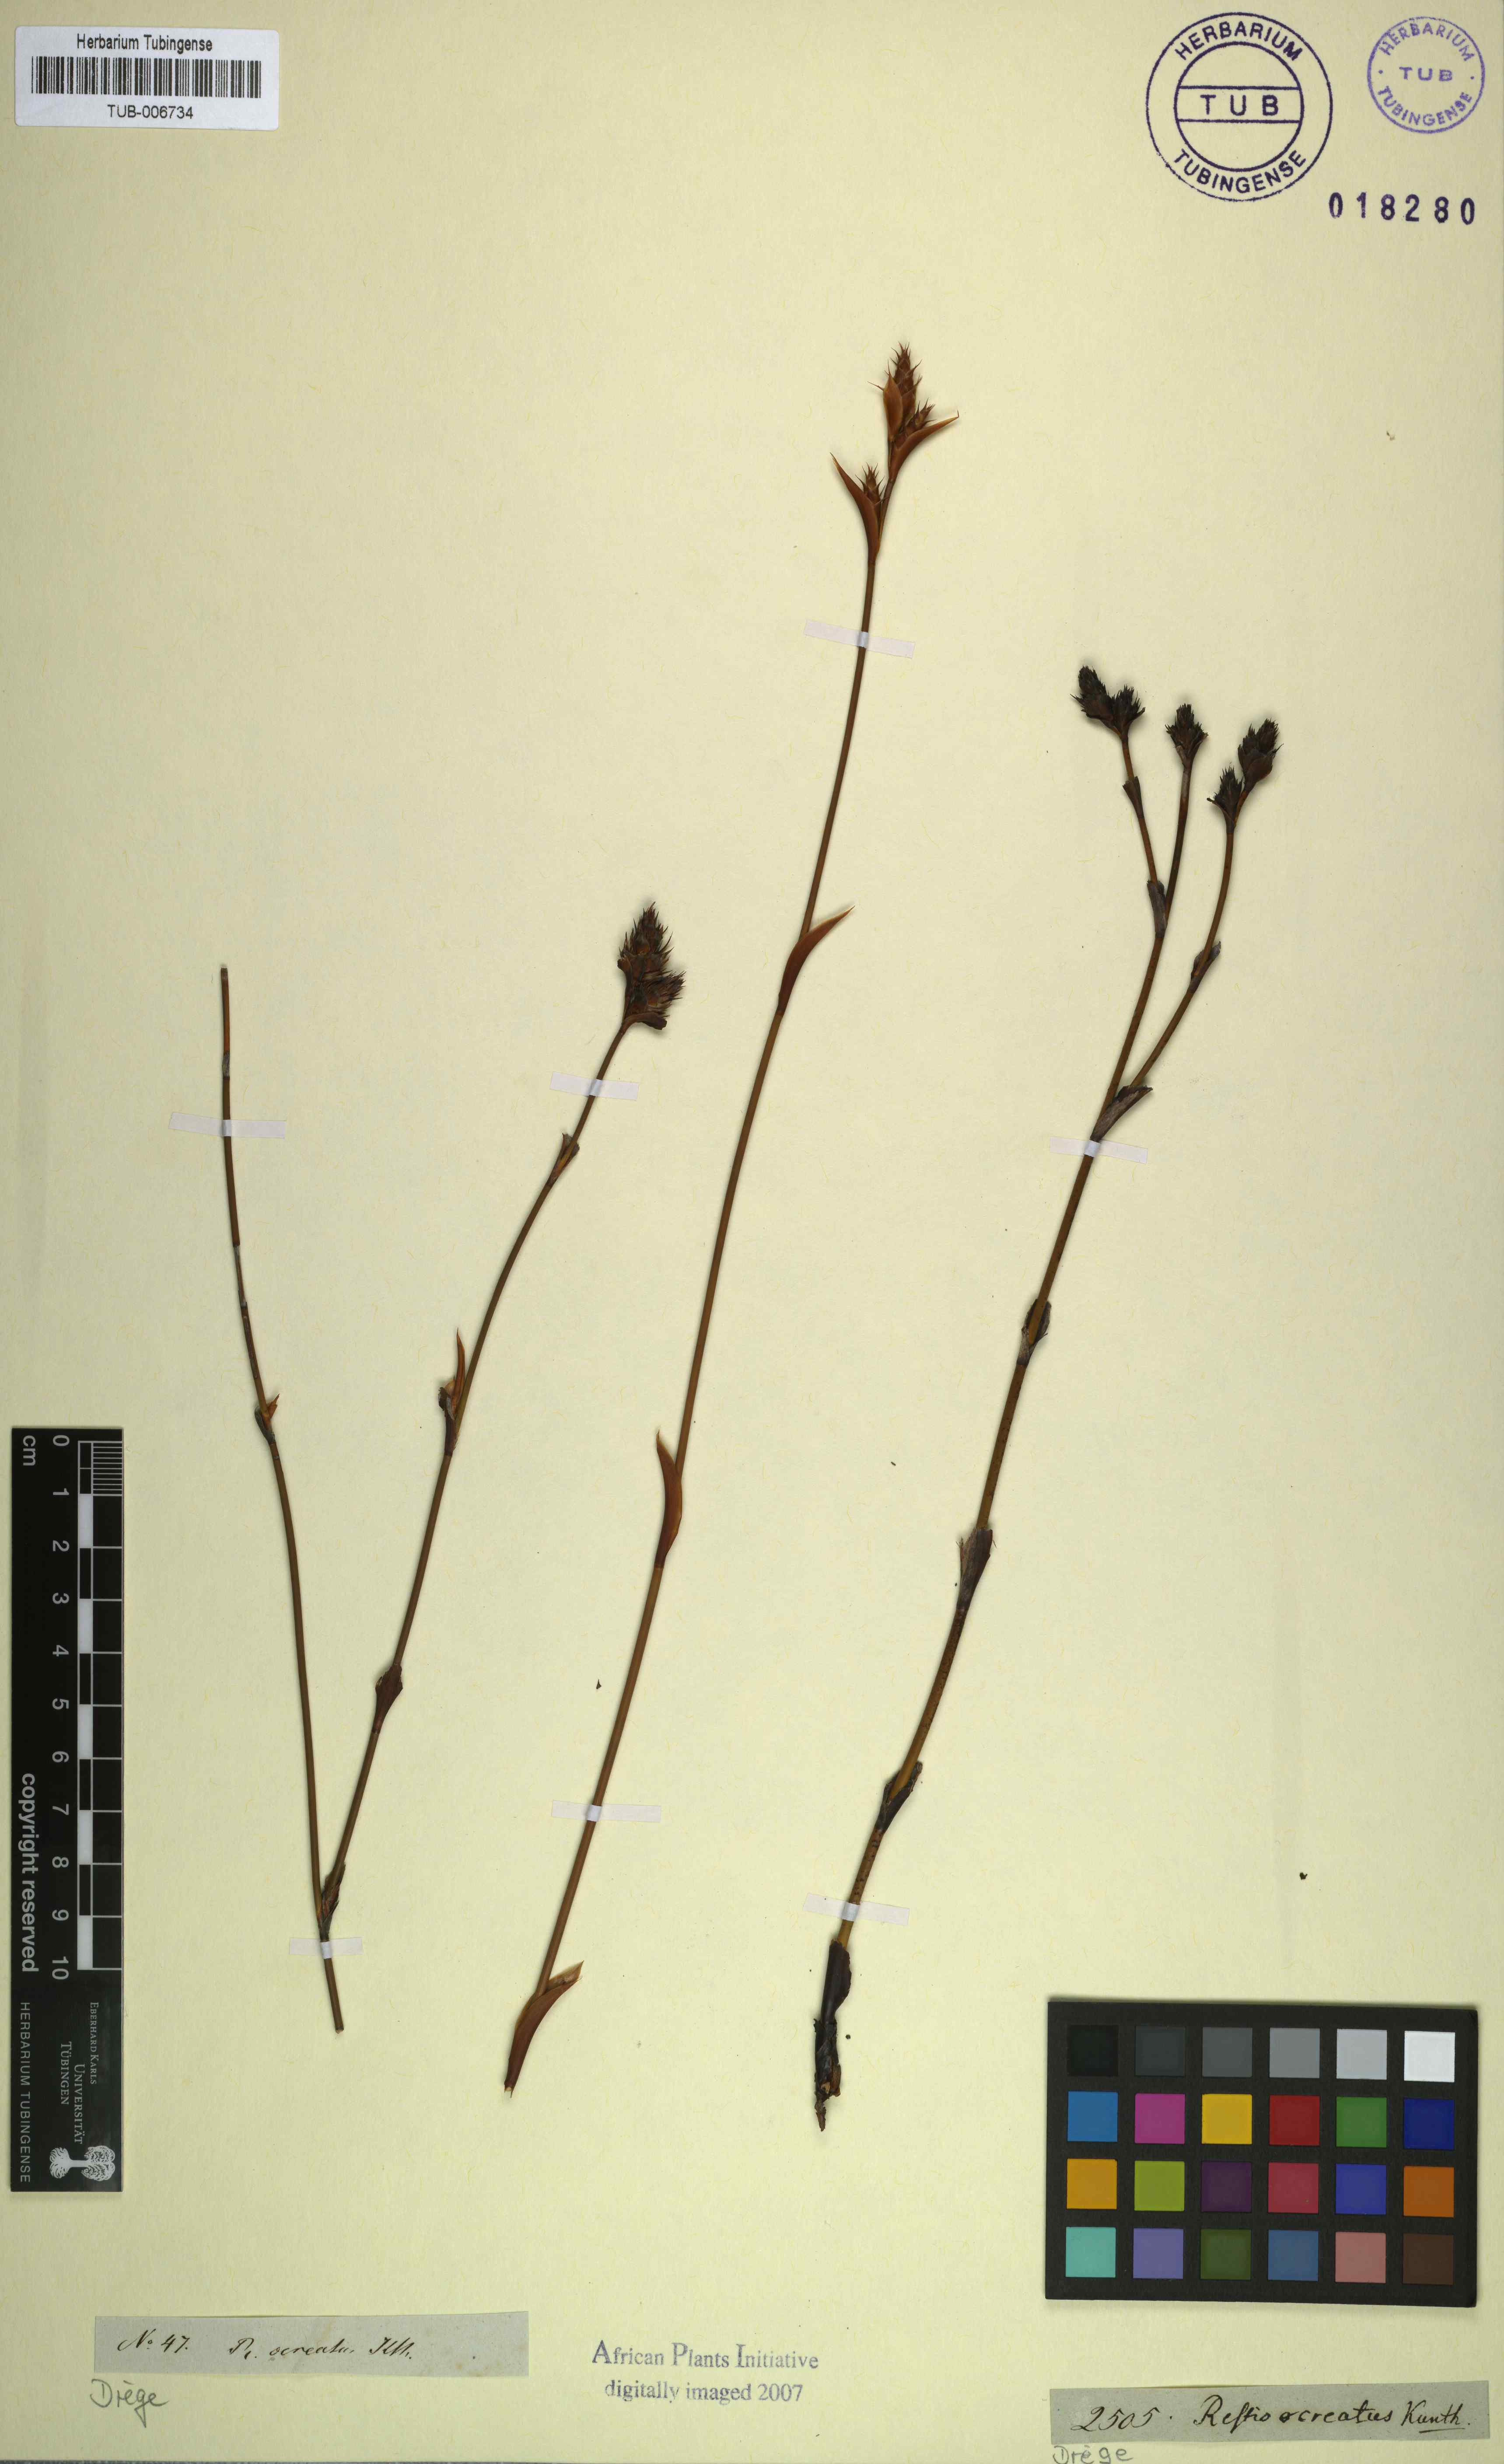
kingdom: Plantae
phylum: Tracheophyta
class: Liliopsida
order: Poales
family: Restionaceae
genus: Restio
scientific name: Restio ocreatus
